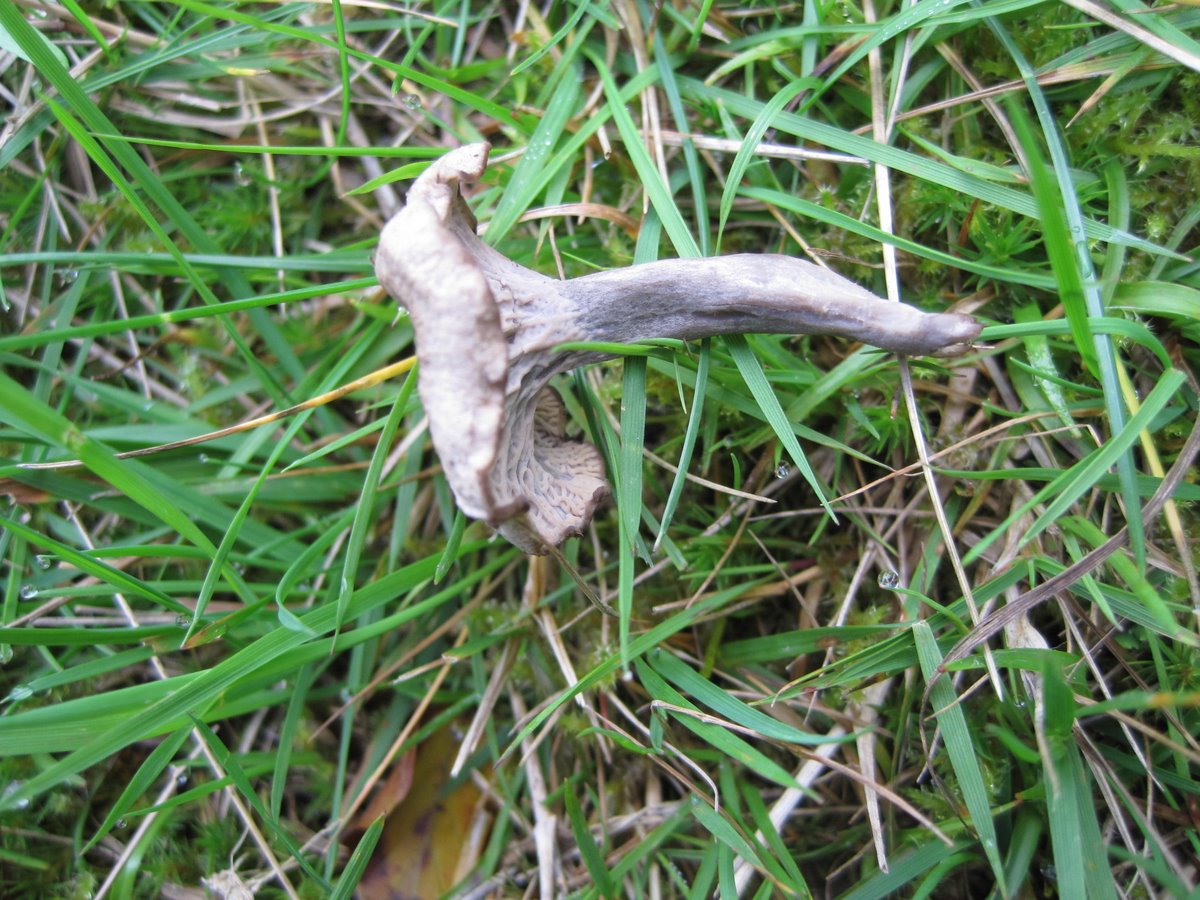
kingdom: Fungi
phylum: Basidiomycota
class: Agaricomycetes
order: Cantharellales
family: Hydnaceae
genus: Cantharellus
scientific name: Cantharellus cinereus
